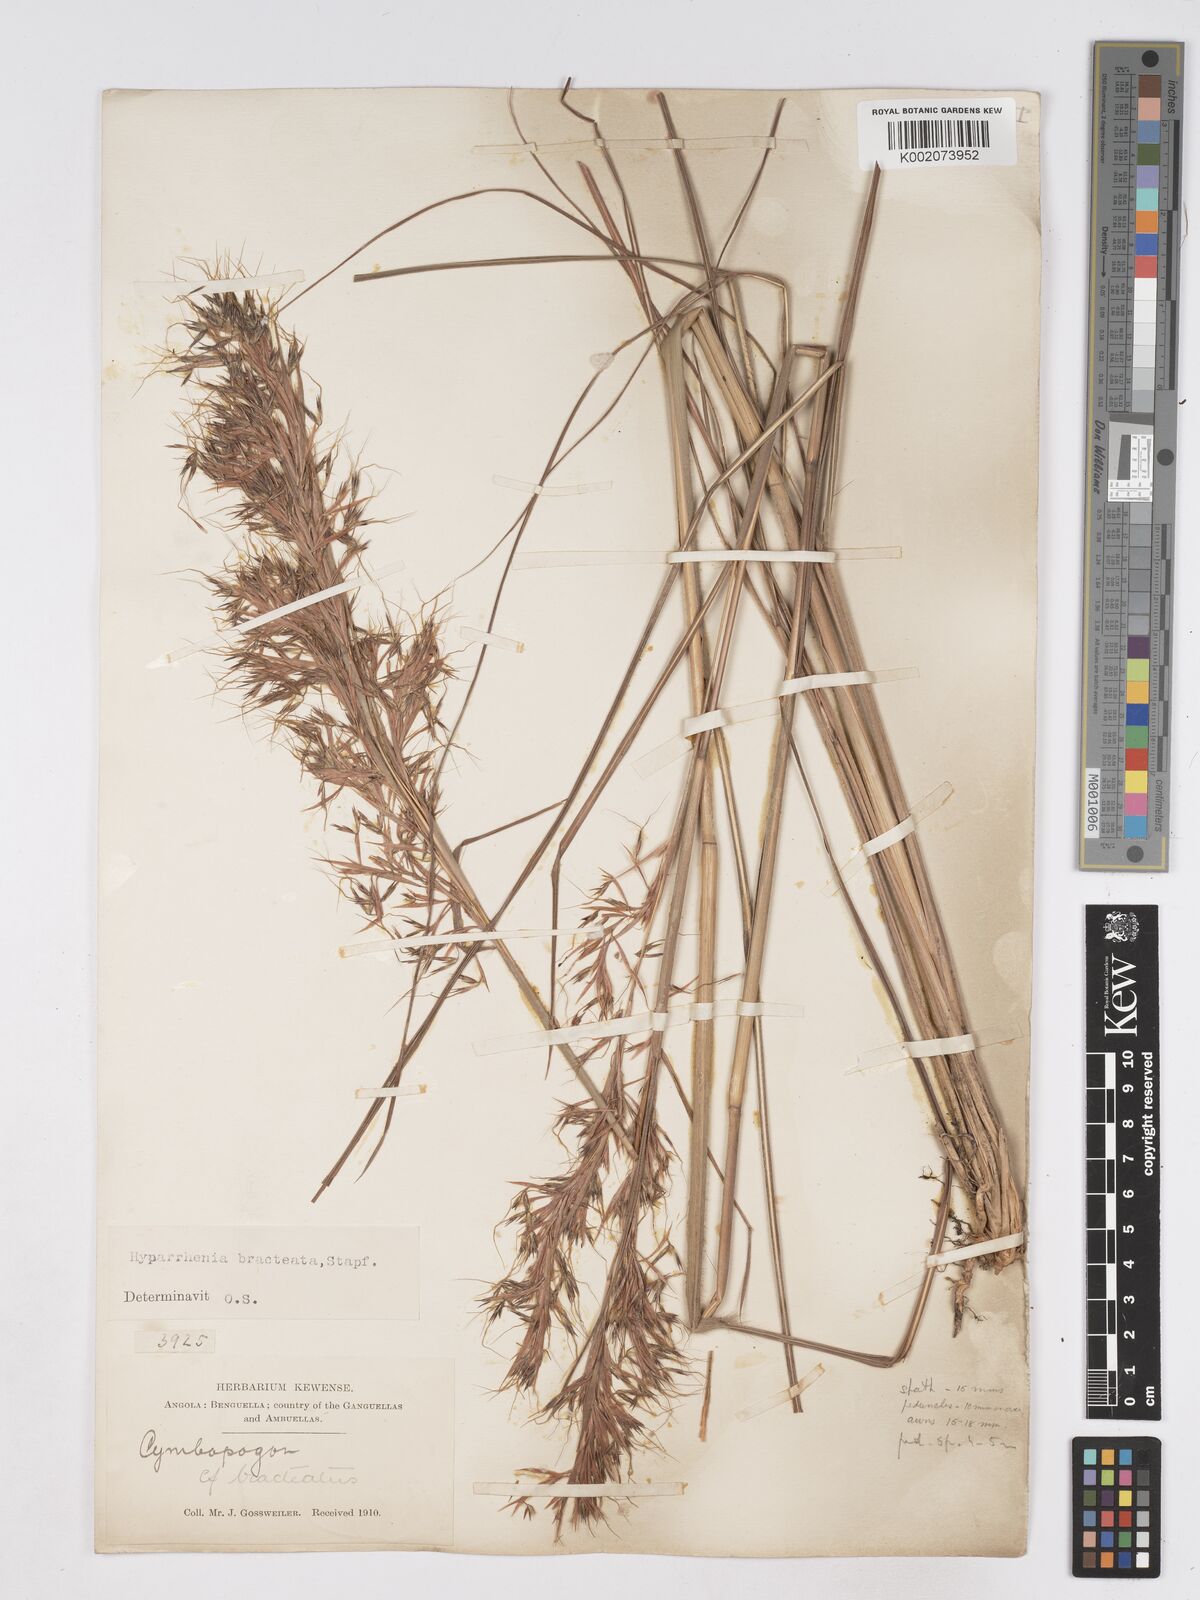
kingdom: Plantae
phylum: Tracheophyta
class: Liliopsida
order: Poales
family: Poaceae
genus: Hyparrhenia
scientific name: Hyparrhenia bracteata
